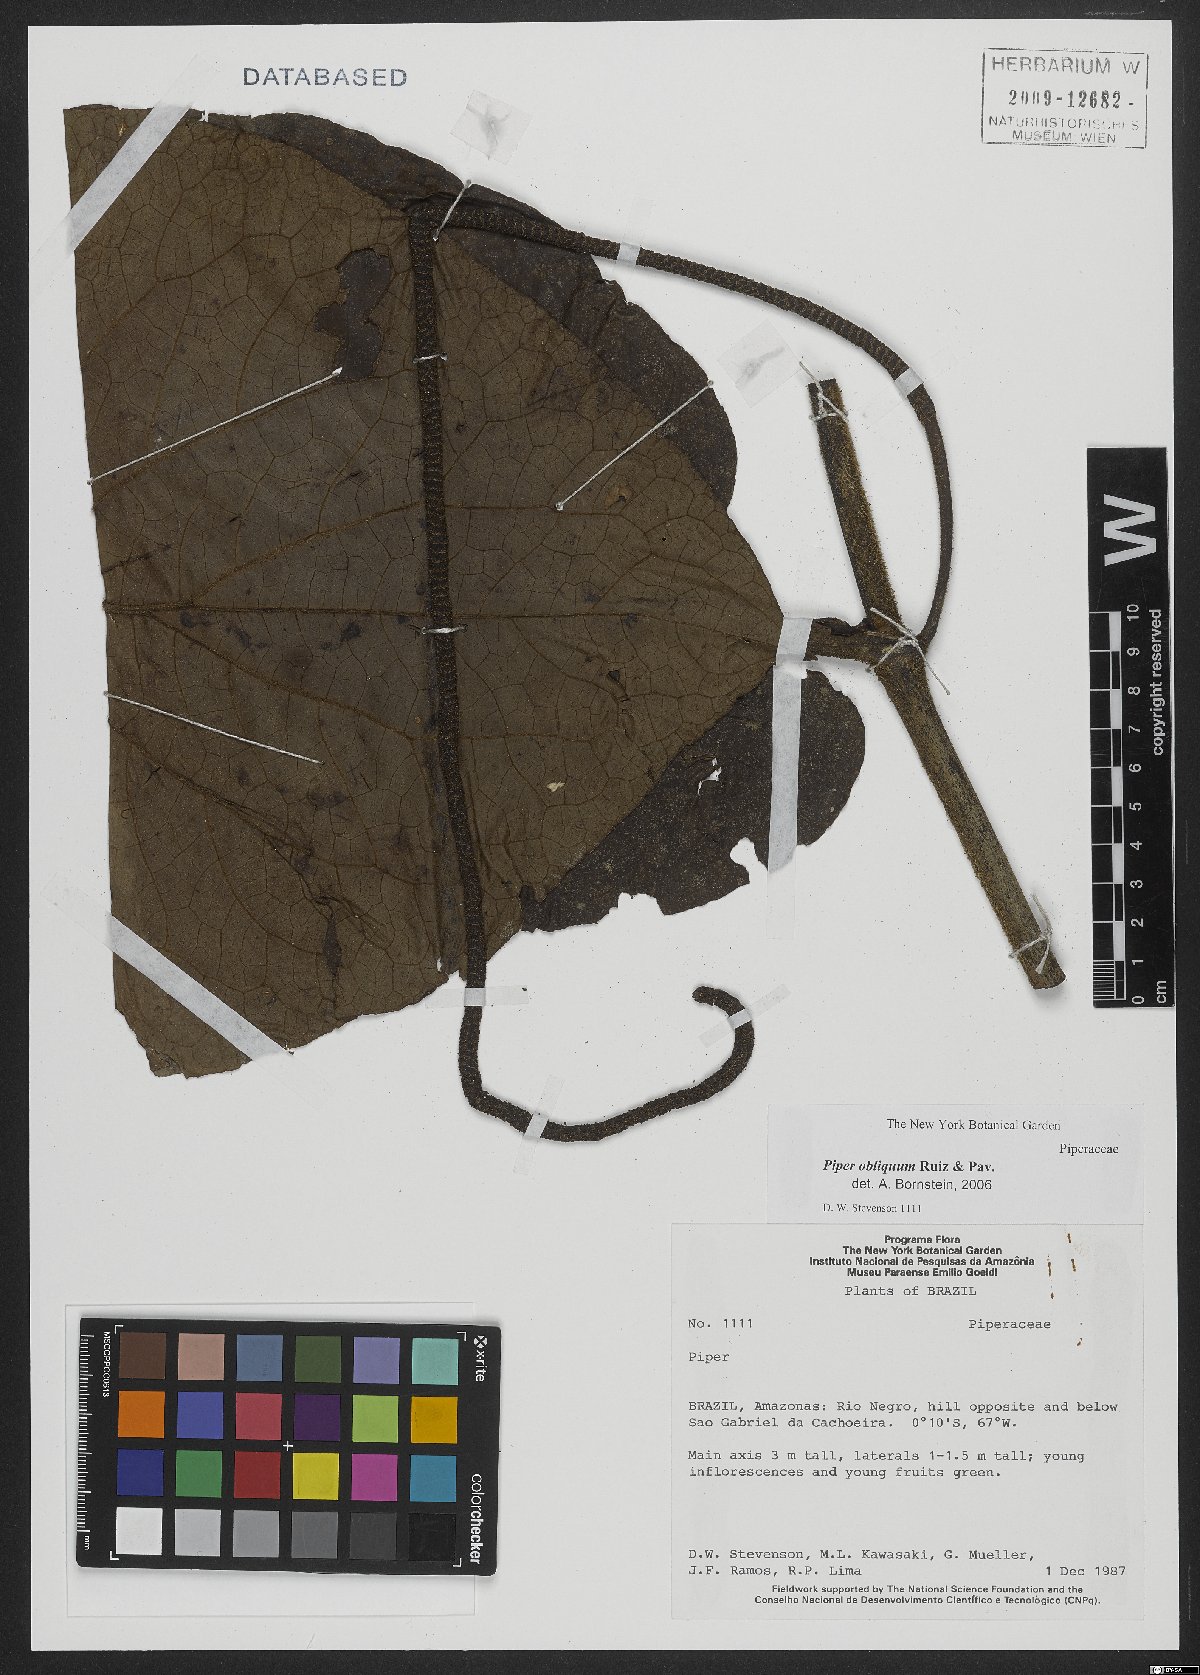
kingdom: Plantae
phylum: Tracheophyta
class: Magnoliopsida
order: Piperales
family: Piperaceae
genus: Piper
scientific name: Piper obliquum
